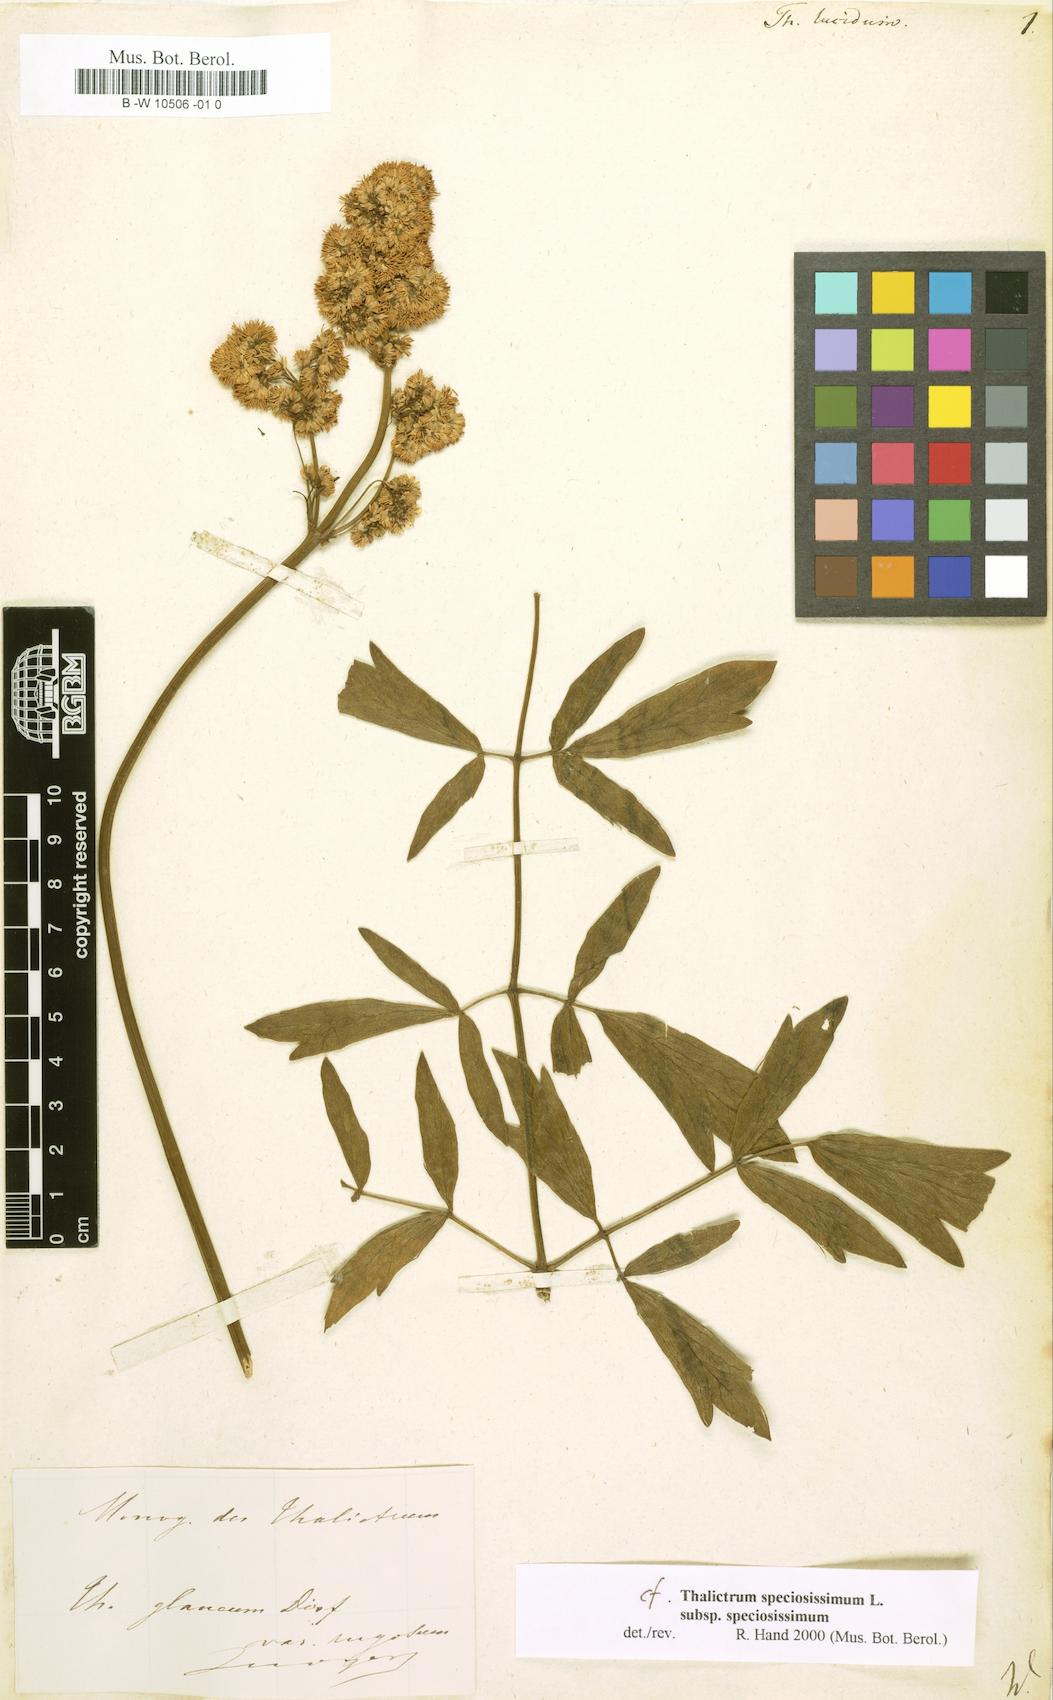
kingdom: Plantae
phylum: Tracheophyta
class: Magnoliopsida
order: Ranunculales
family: Ranunculaceae
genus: Thalictrum
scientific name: Thalictrum lucidum
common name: Shining meadow-rue
